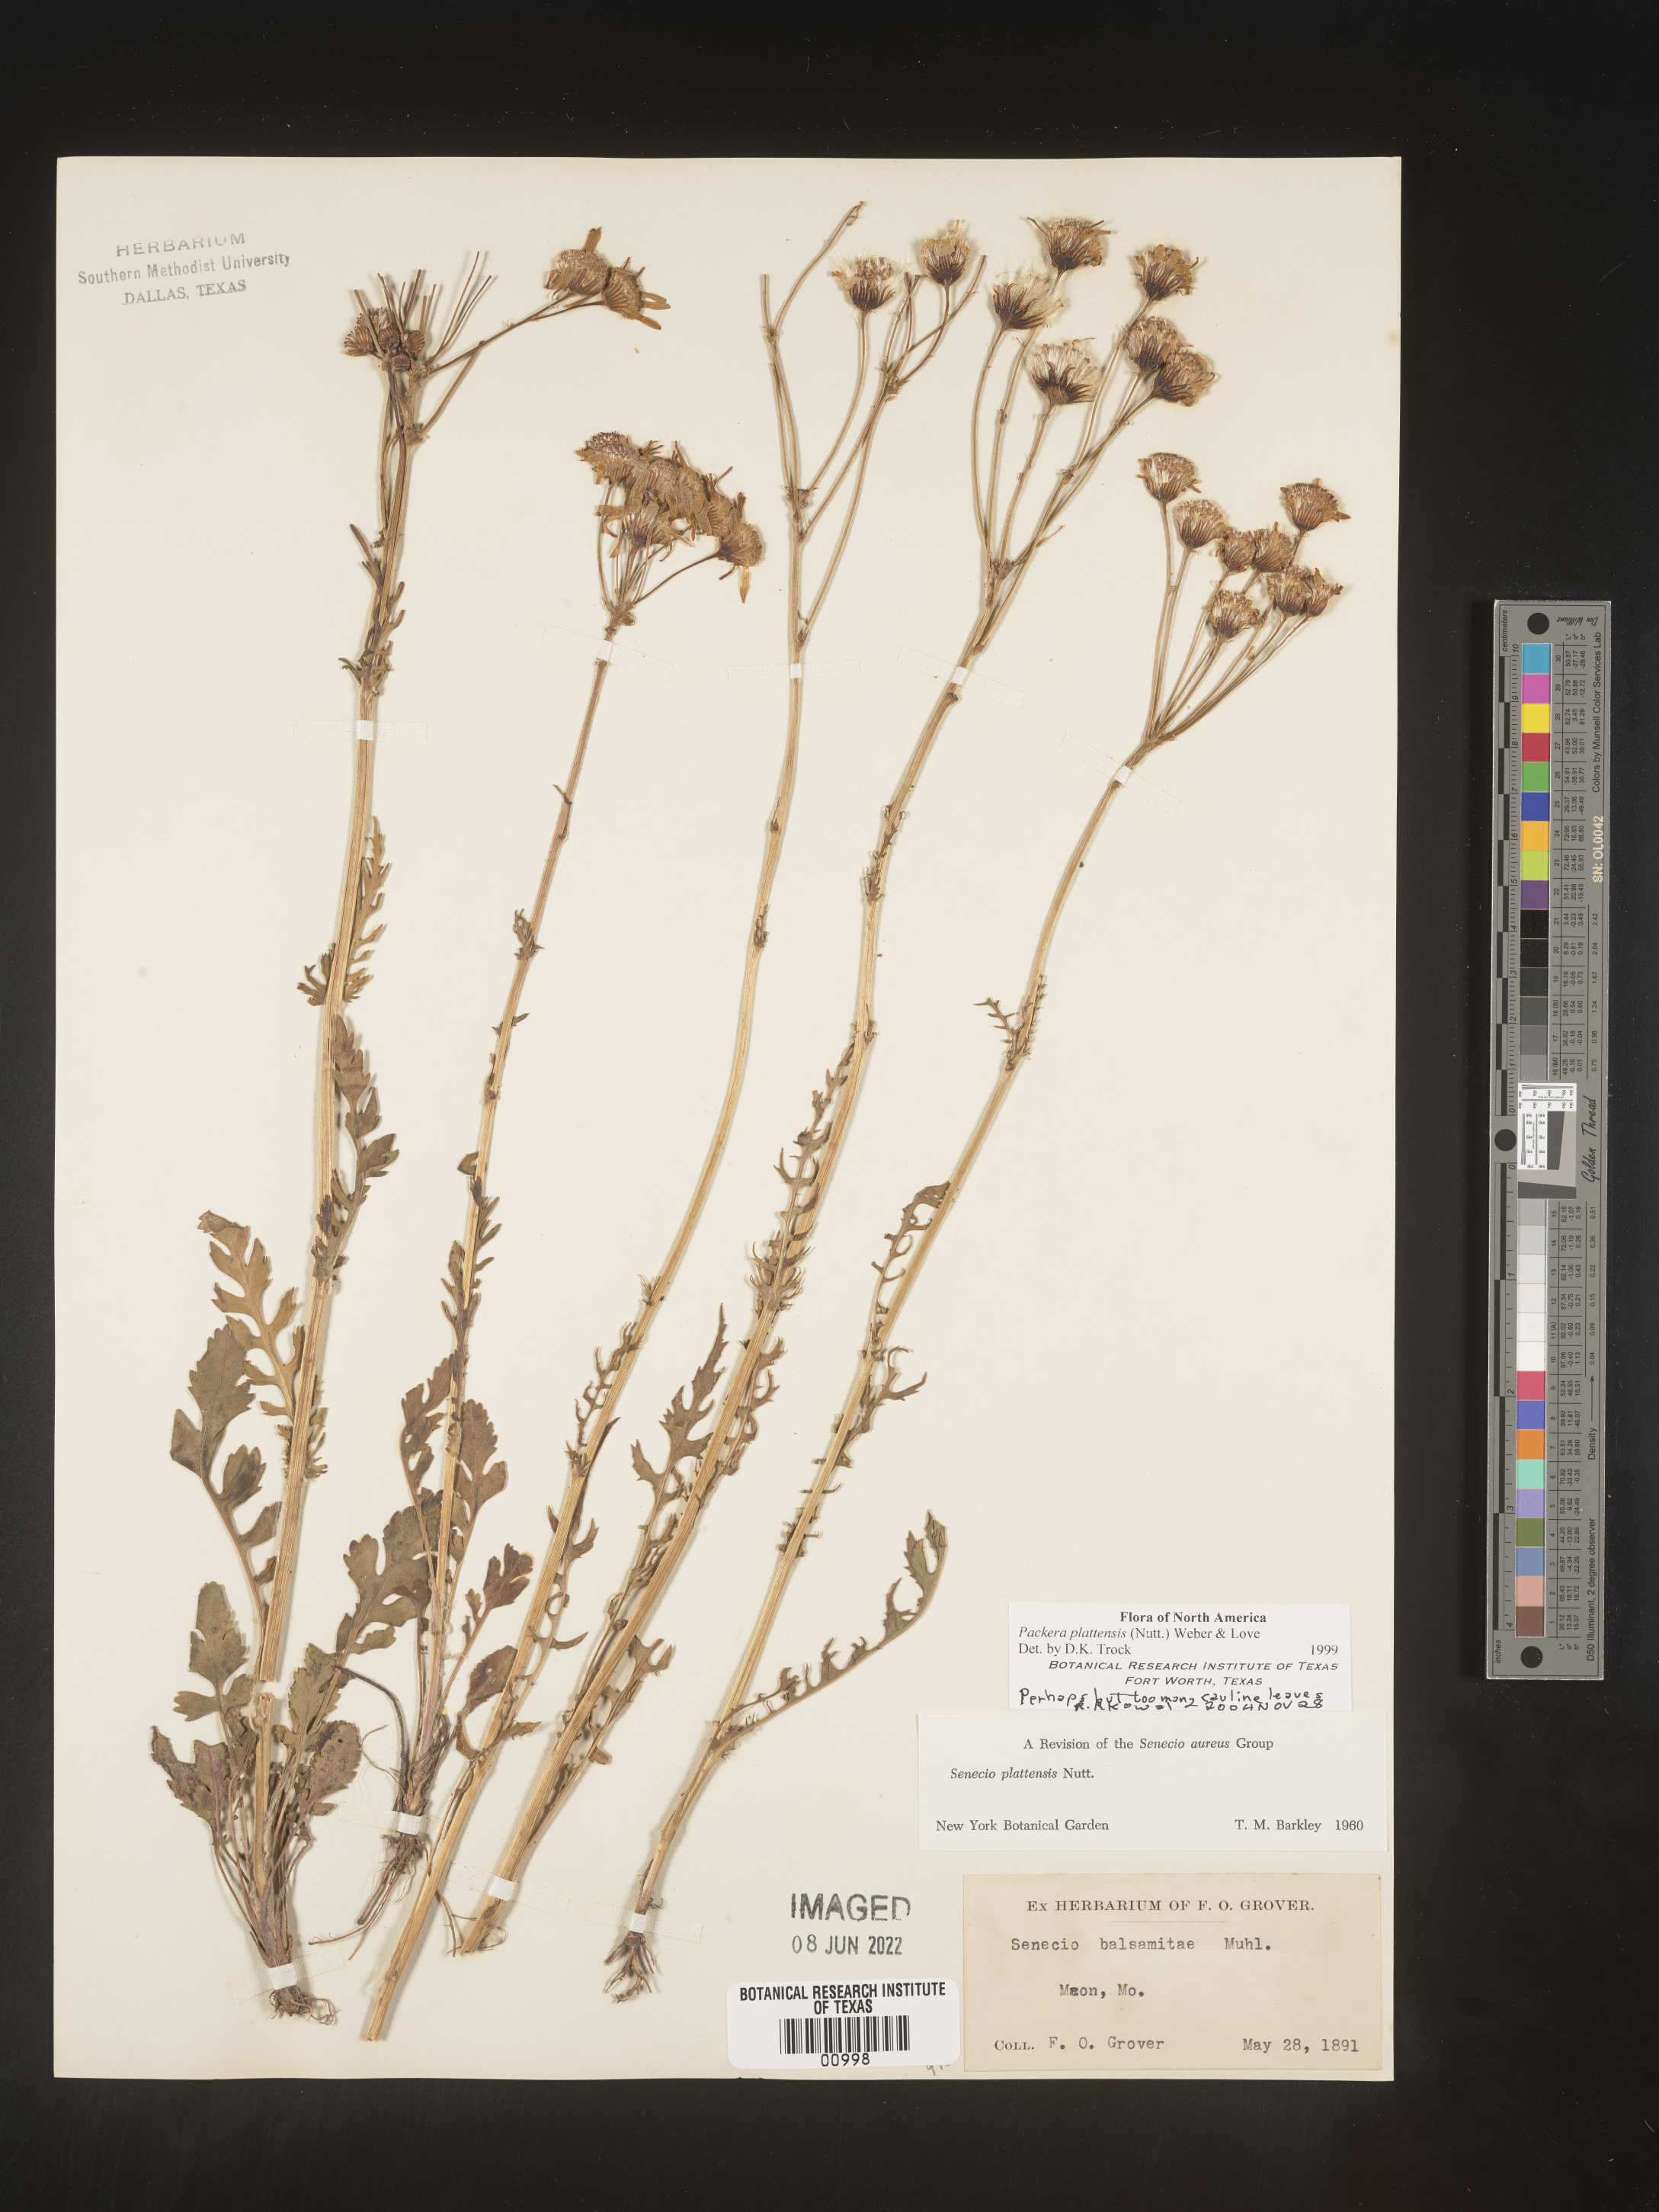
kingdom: Plantae
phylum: Tracheophyta
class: Magnoliopsida
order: Asterales
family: Asteraceae
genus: Packera
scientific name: Packera plattensis
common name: Prairie groundsel
